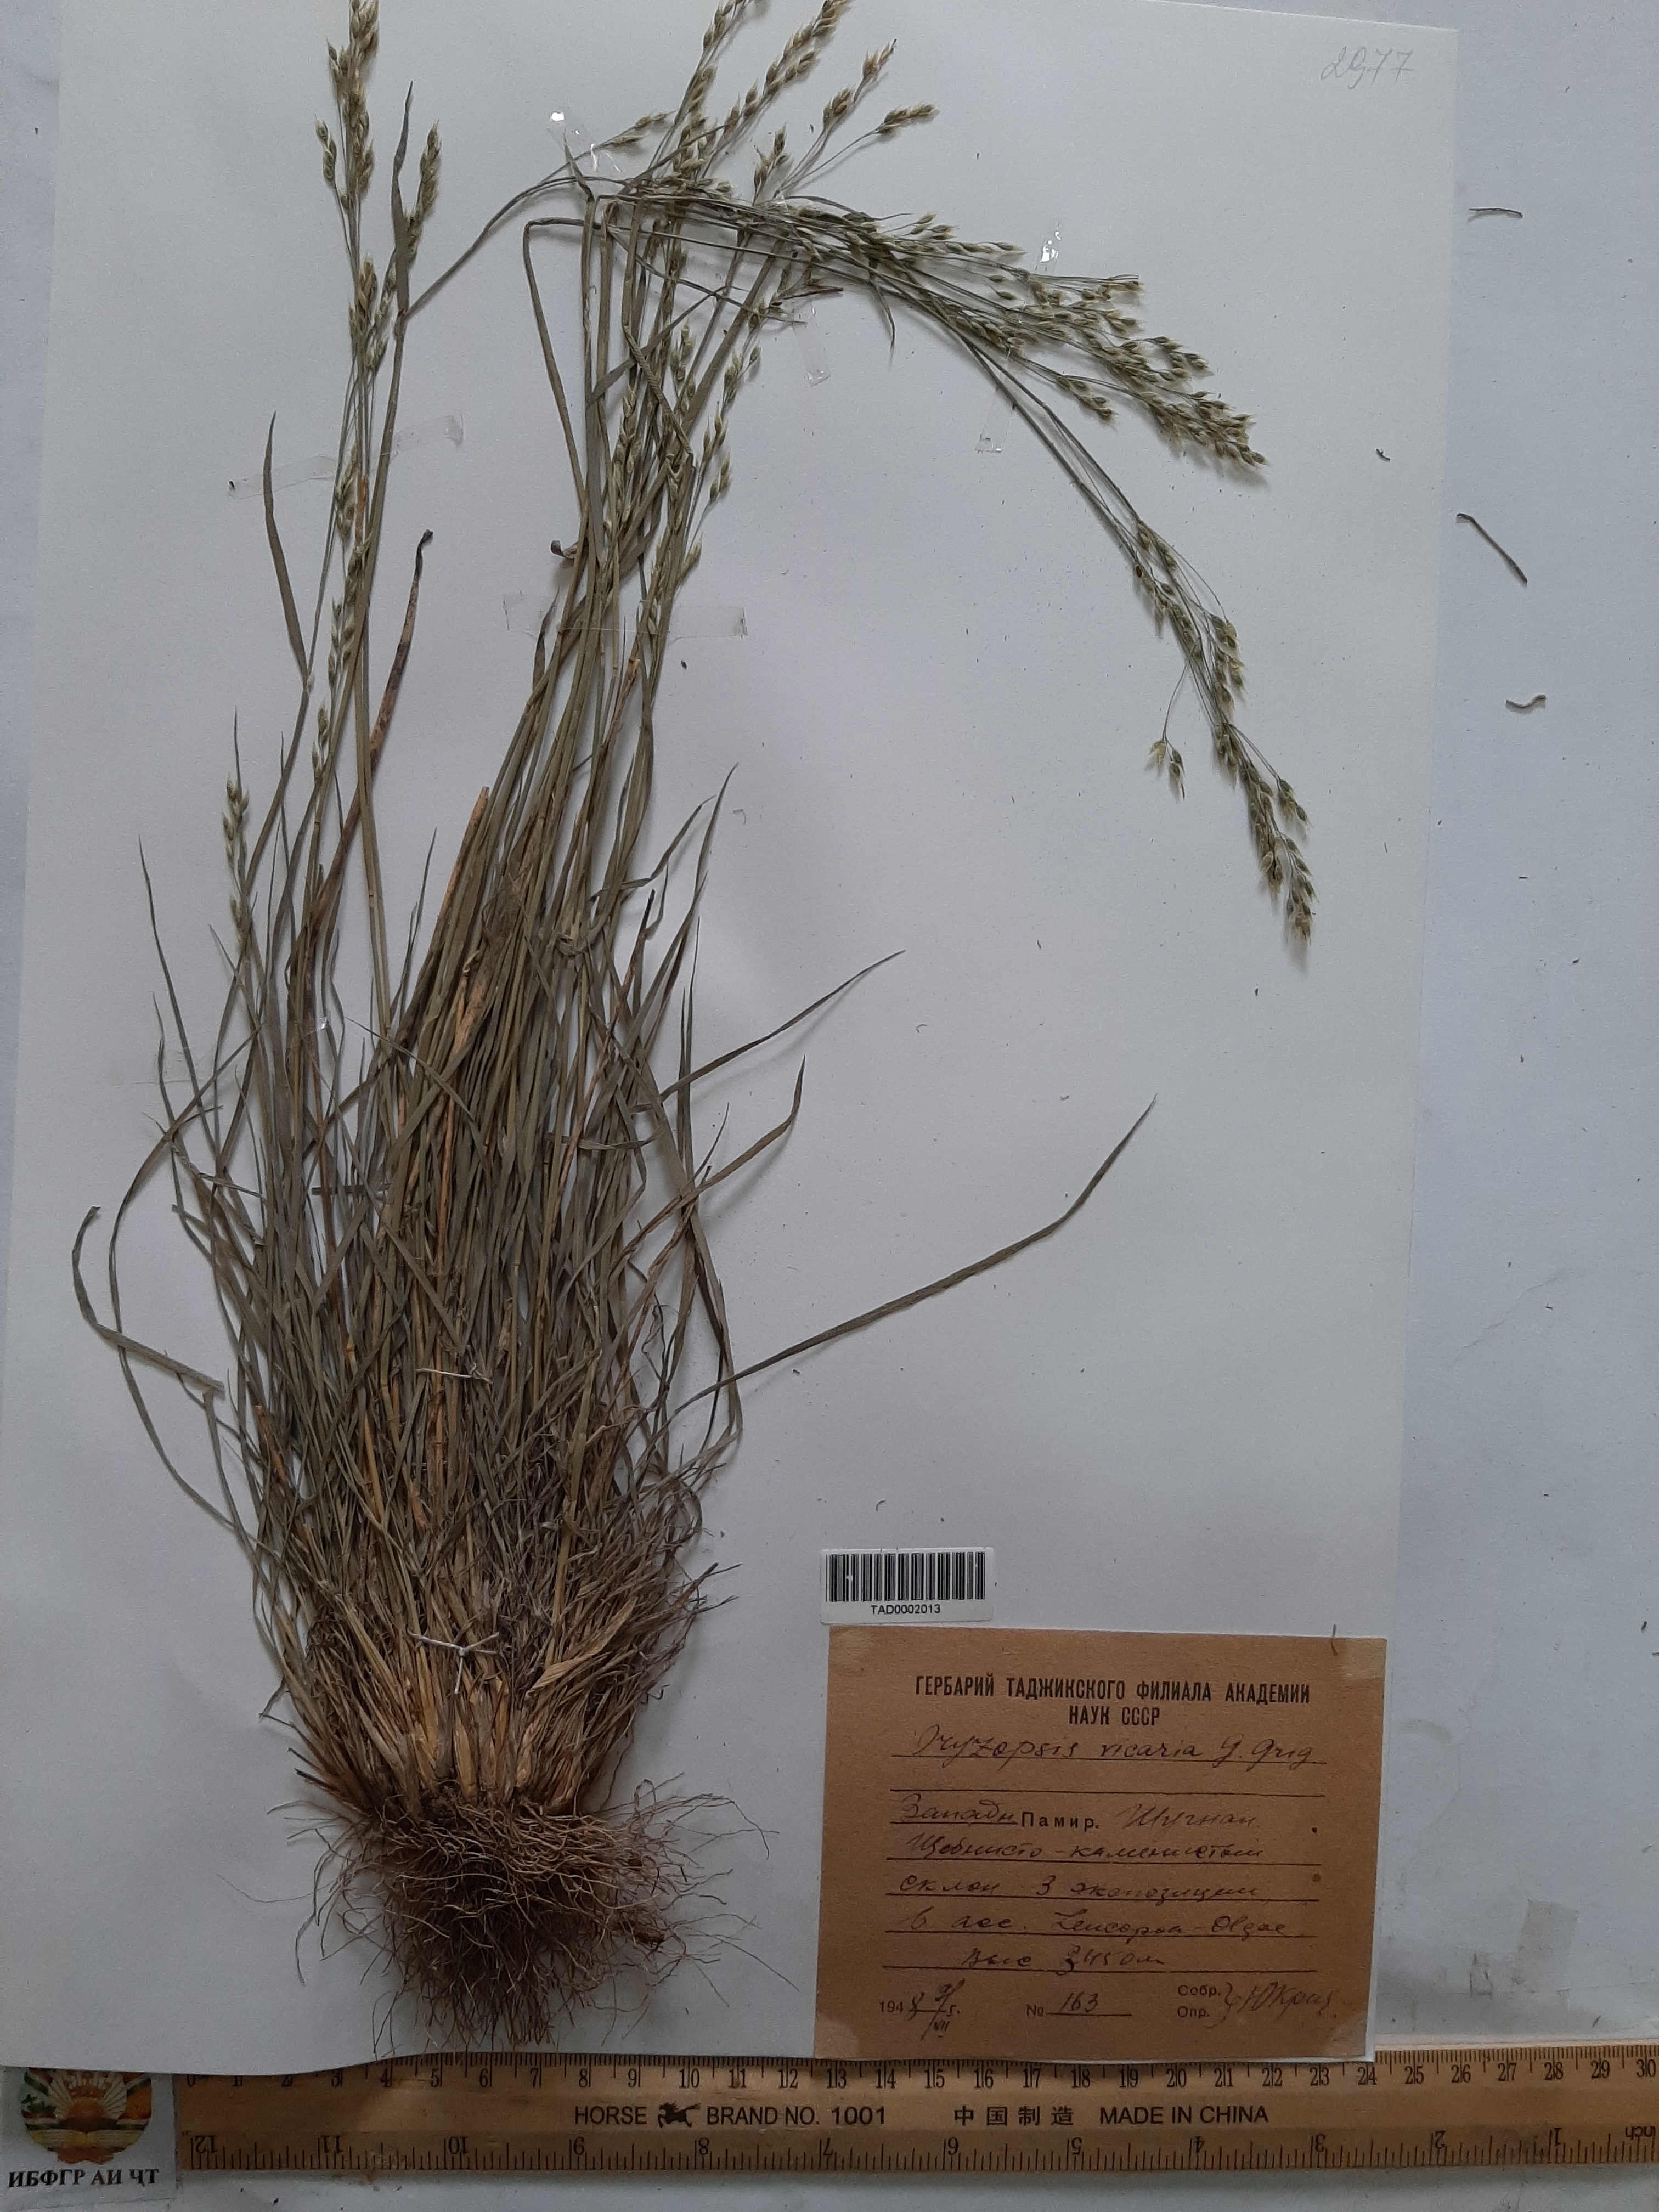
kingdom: Plantae
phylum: Tracheophyta
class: Liliopsida
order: Poales
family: Poaceae
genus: Piptatherum
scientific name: Piptatherum microcarpum
